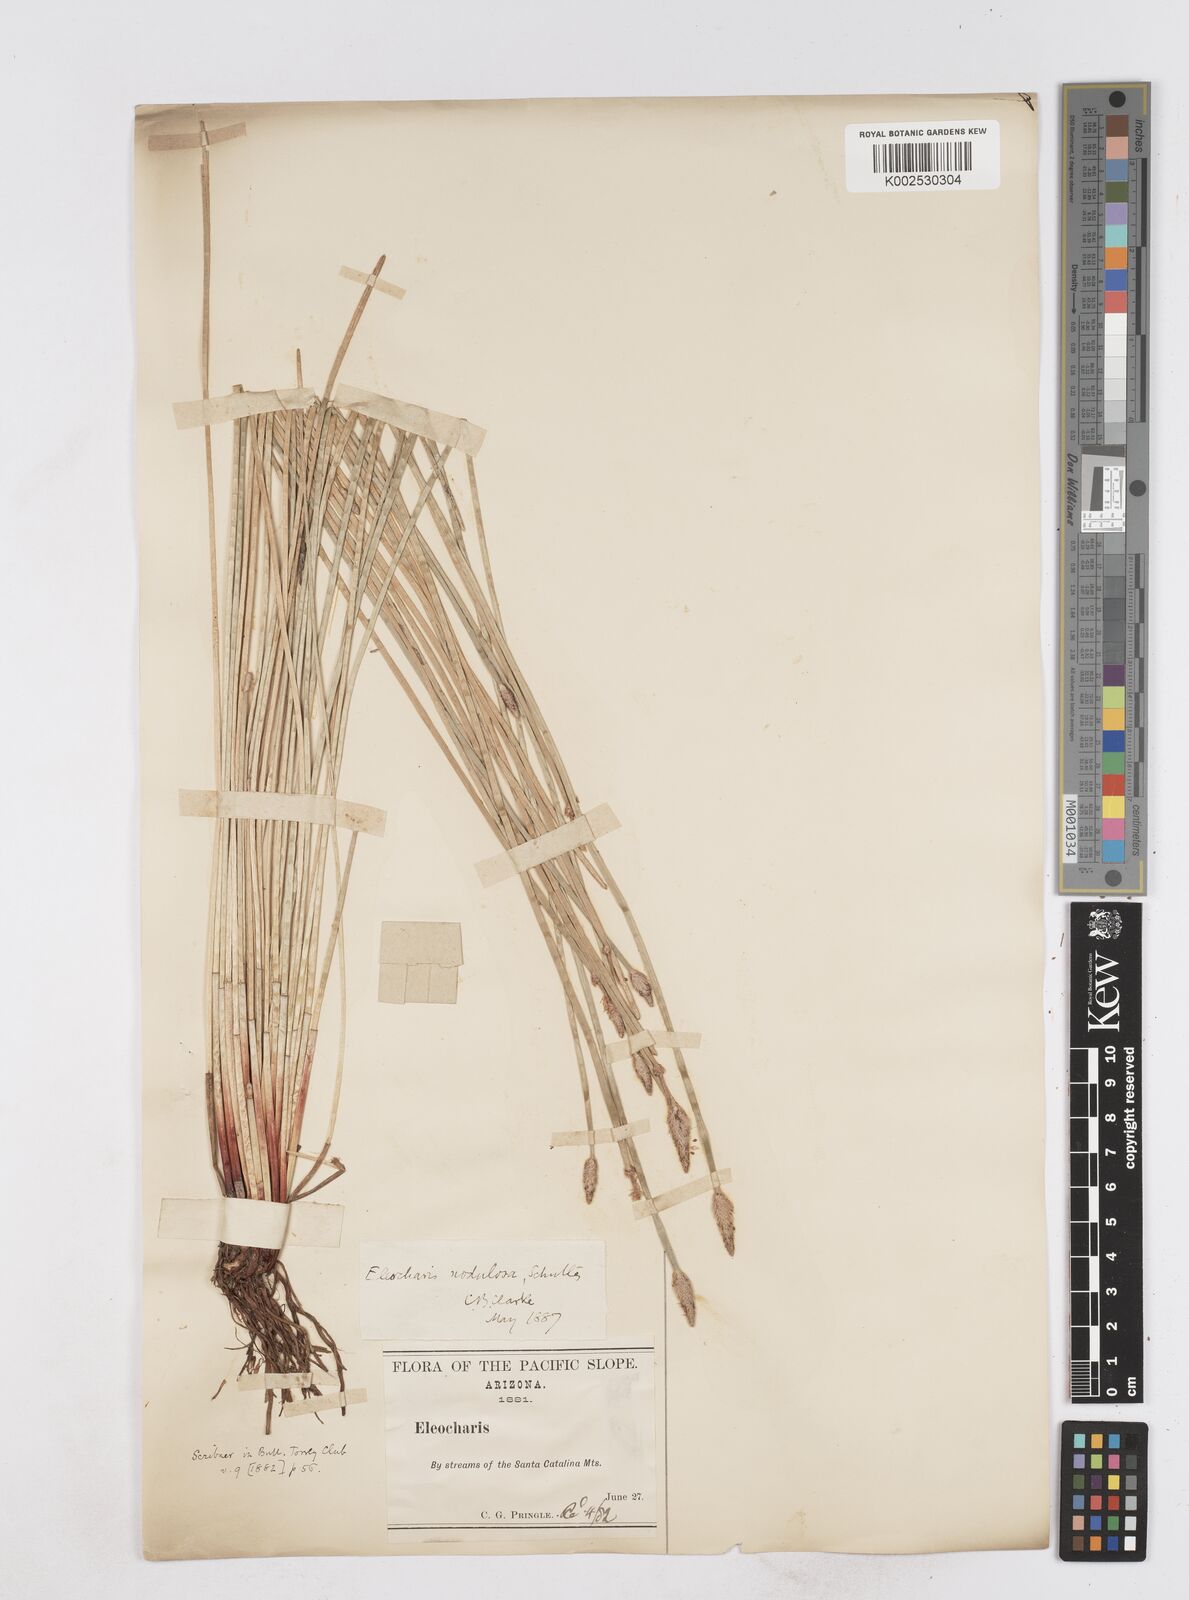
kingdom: Plantae
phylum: Tracheophyta
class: Liliopsida
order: Poales
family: Cyperaceae
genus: Eleocharis
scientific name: Eleocharis montana
